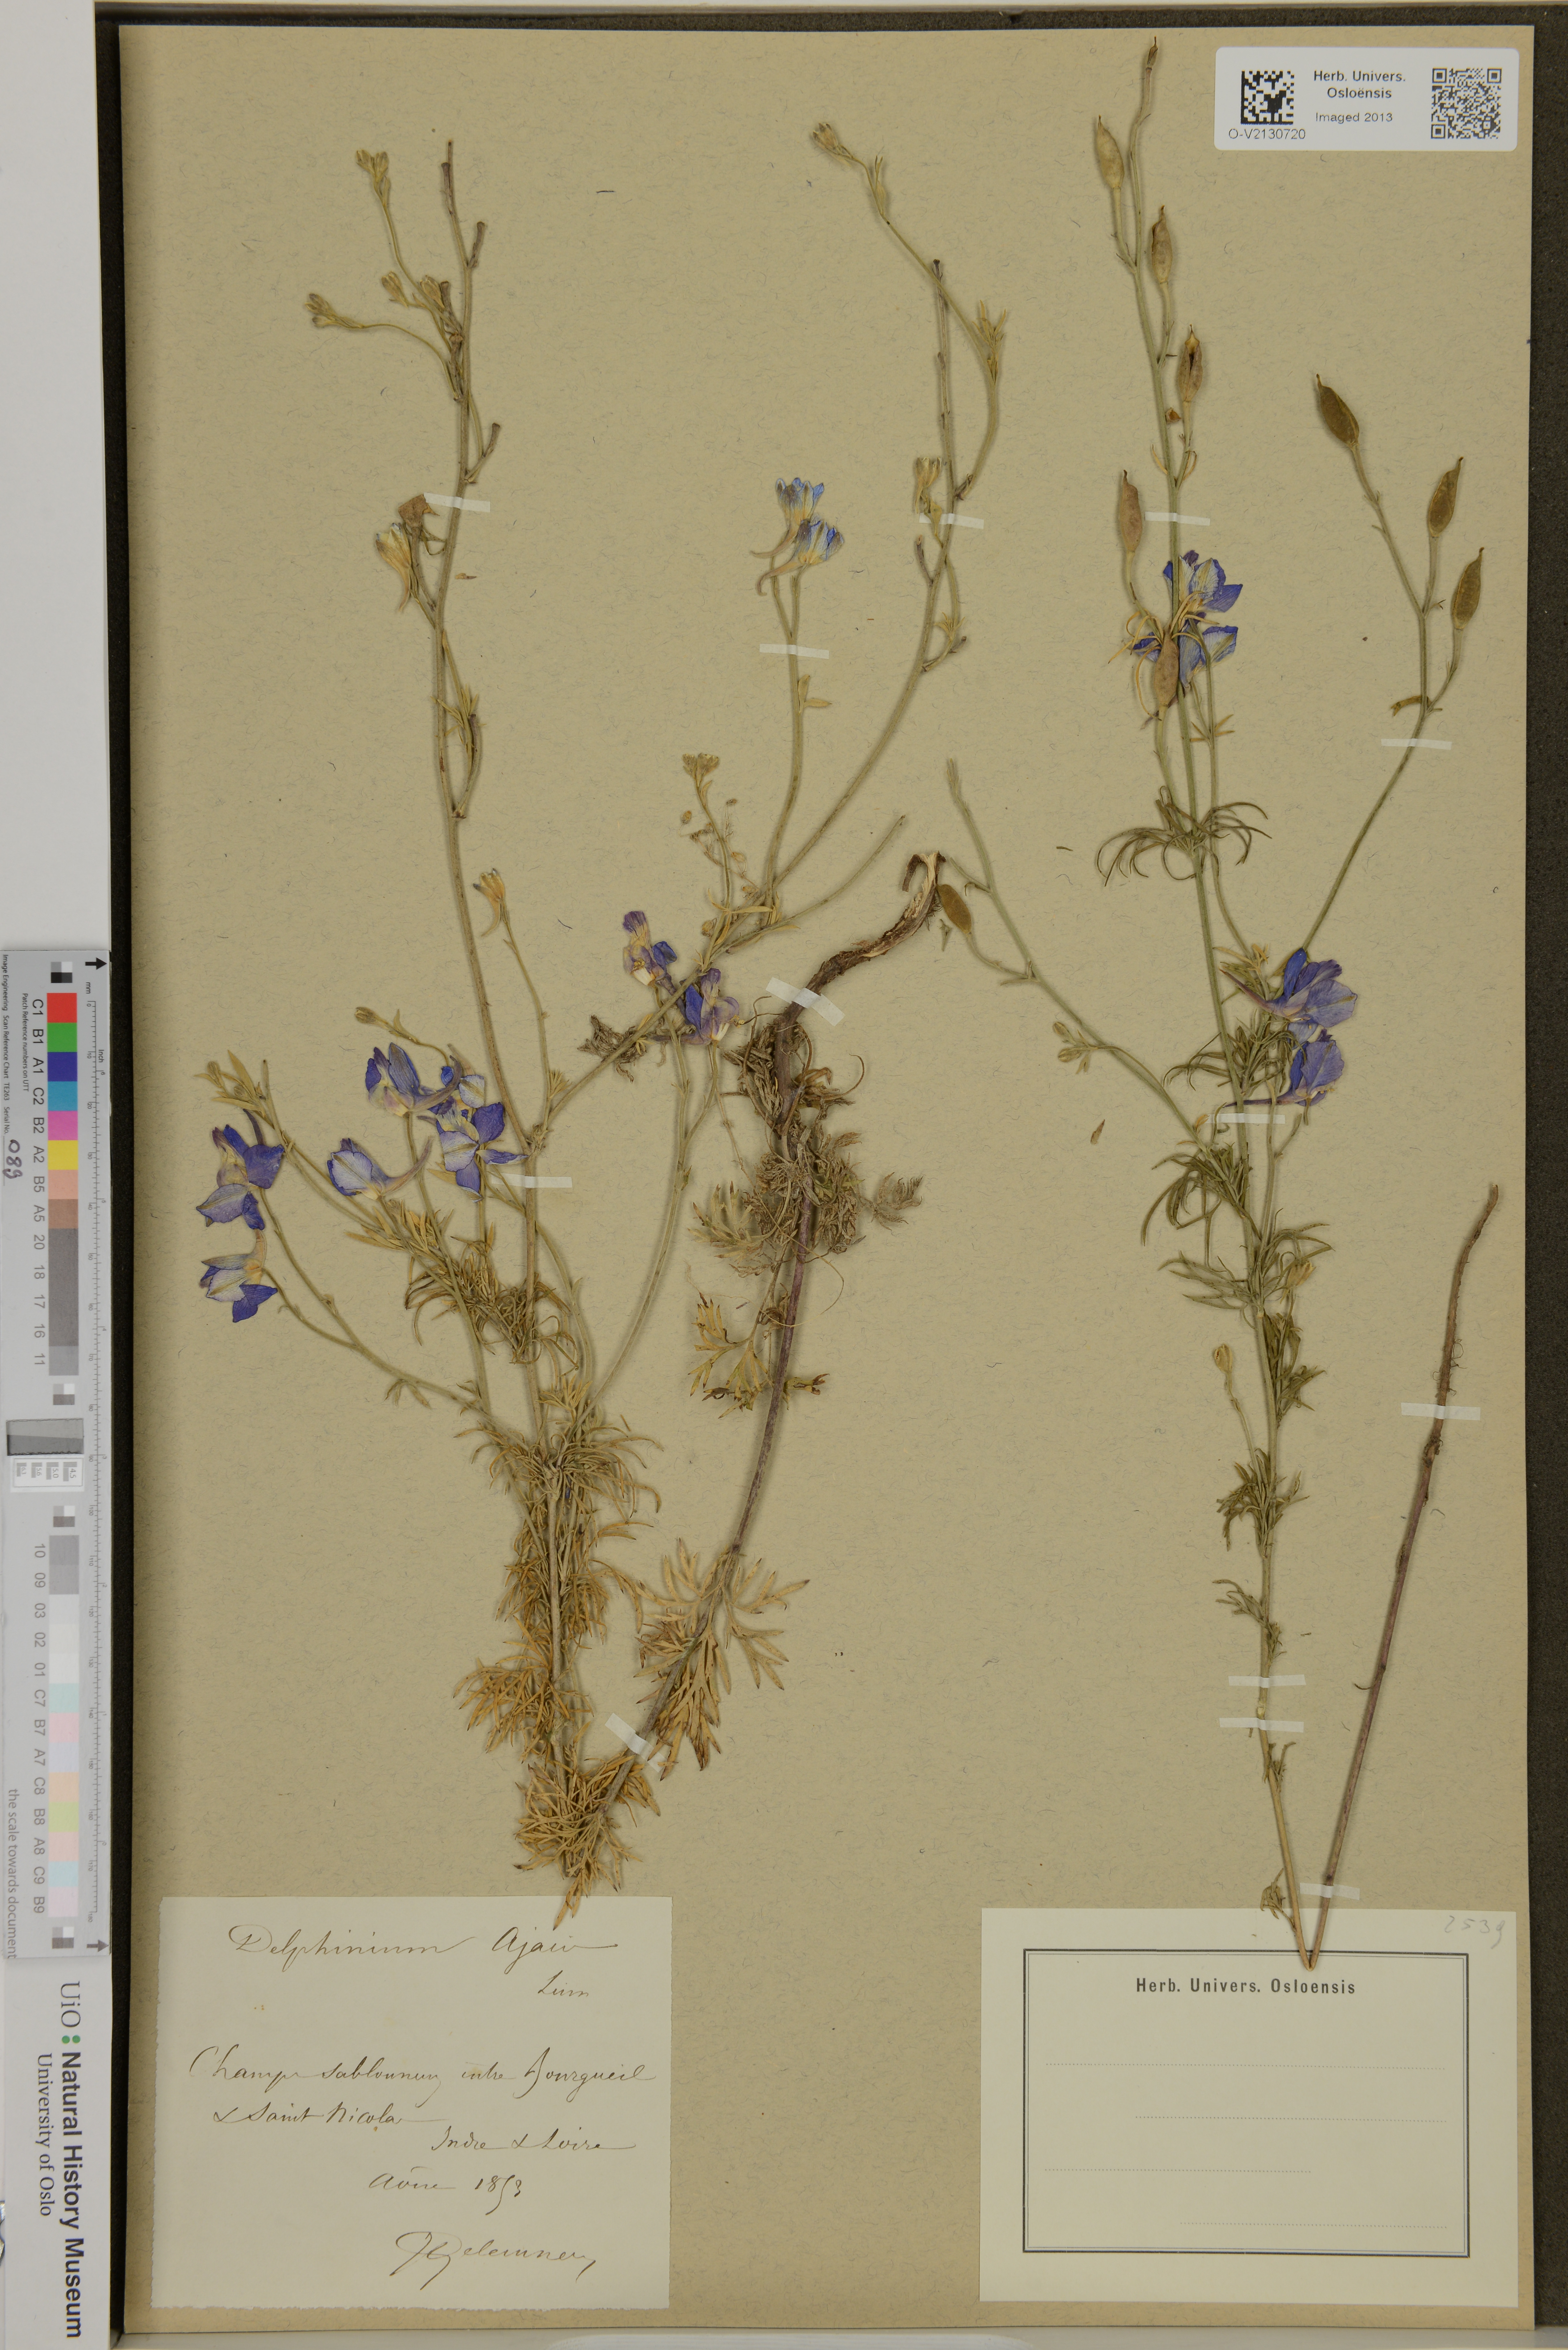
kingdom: Plantae
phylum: Tracheophyta
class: Magnoliopsida
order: Ranunculales
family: Ranunculaceae
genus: Delphinium
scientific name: Delphinium ajacis
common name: Doubtful knight's-spur
